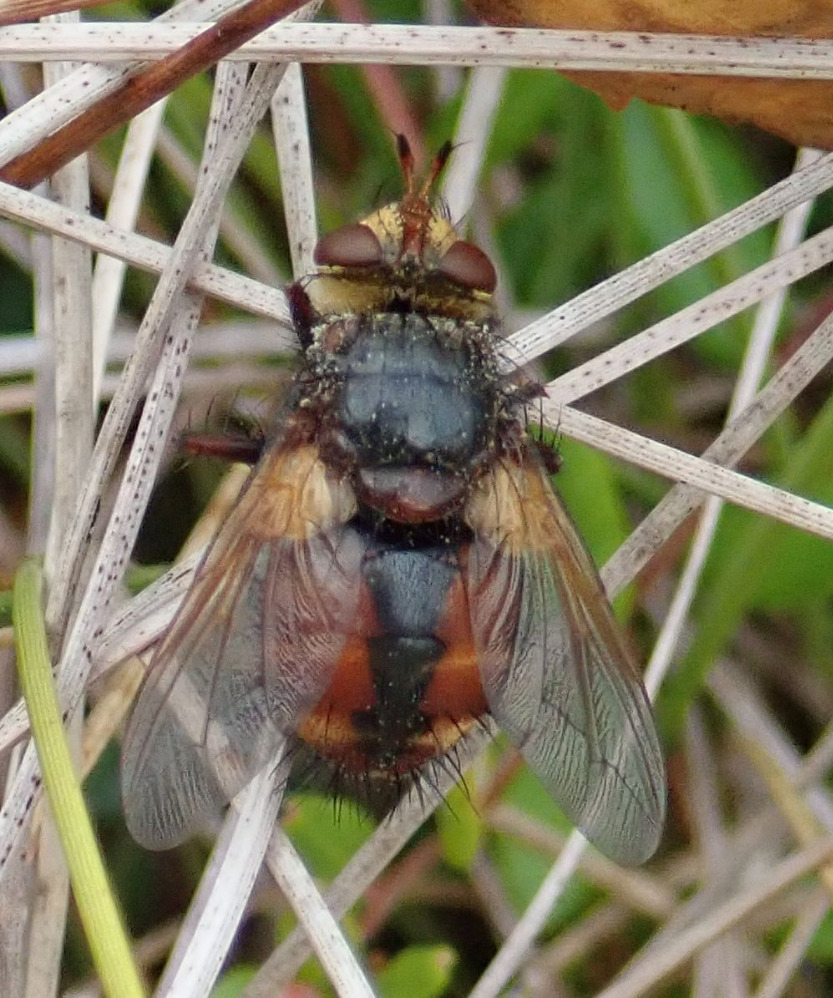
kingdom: Animalia
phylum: Arthropoda
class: Insecta
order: Diptera
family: Tachinidae
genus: Tachina
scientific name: Tachina fera
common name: Mellemfluen oskar
